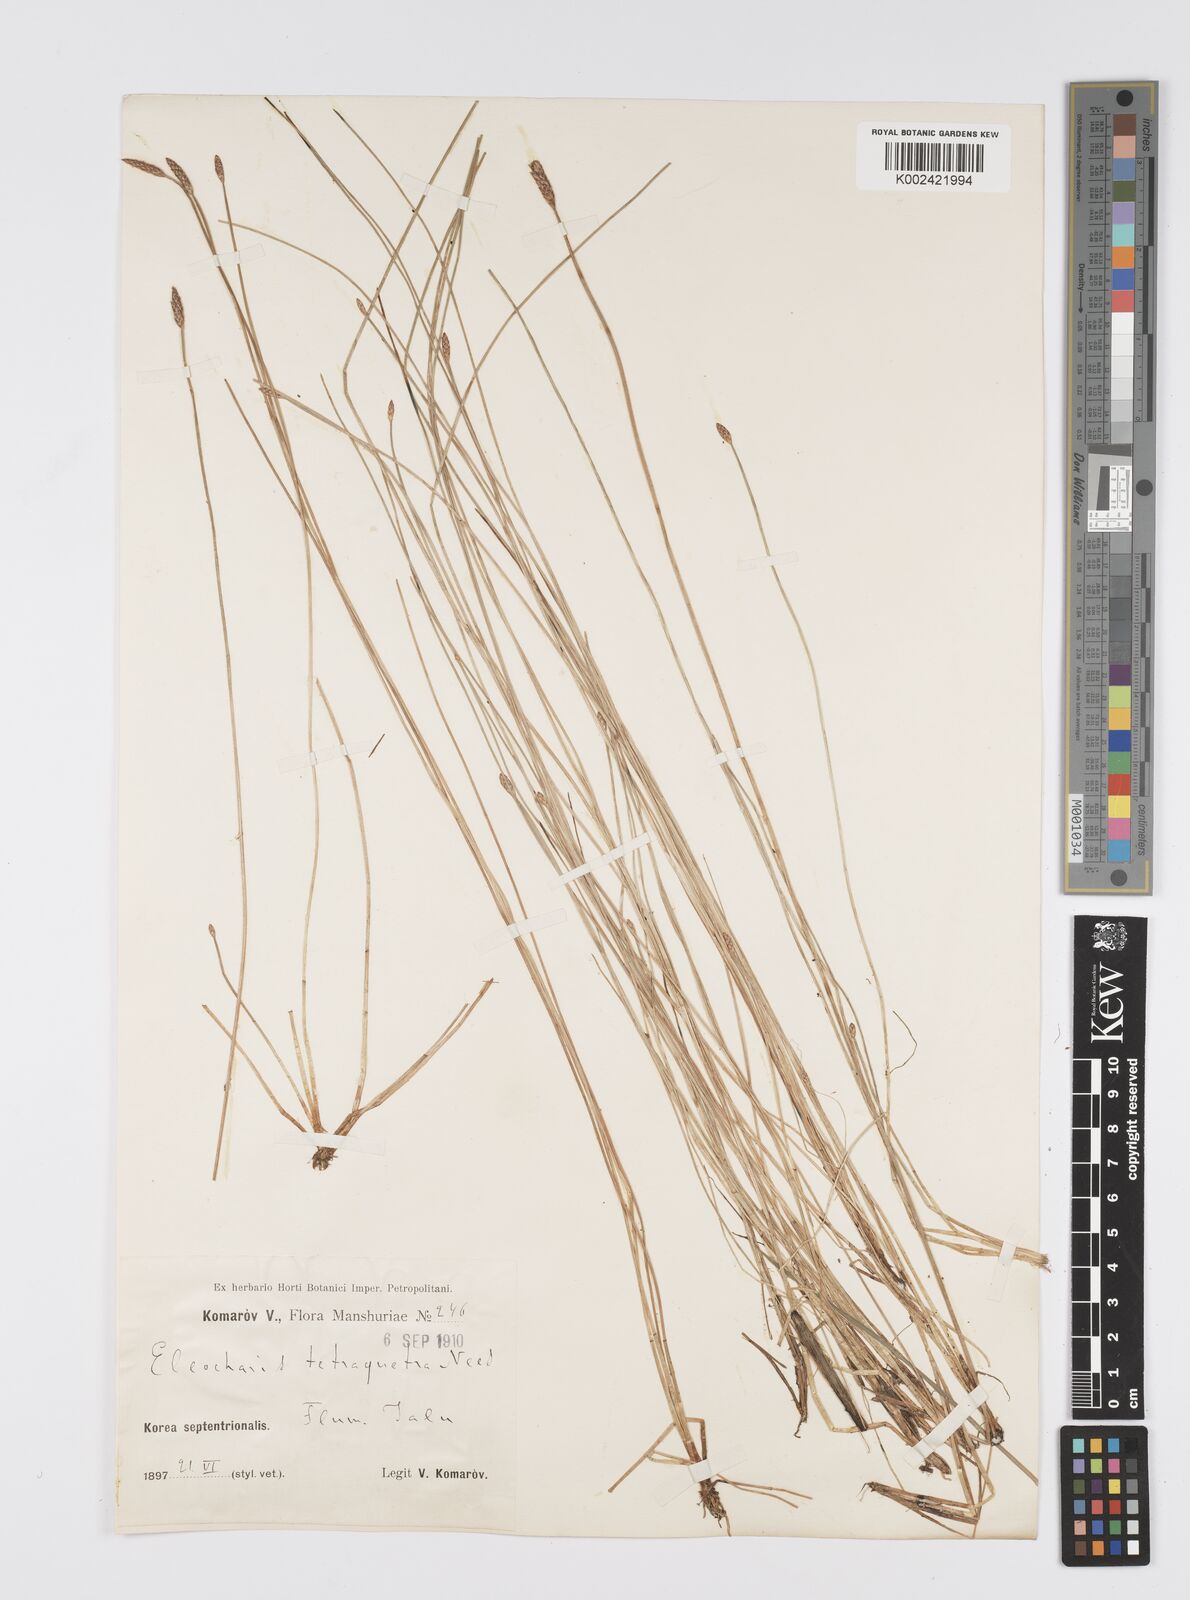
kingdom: Plantae
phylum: Tracheophyta
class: Liliopsida
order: Poales
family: Cyperaceae
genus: Eleocharis
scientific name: Eleocharis tetraquetra
